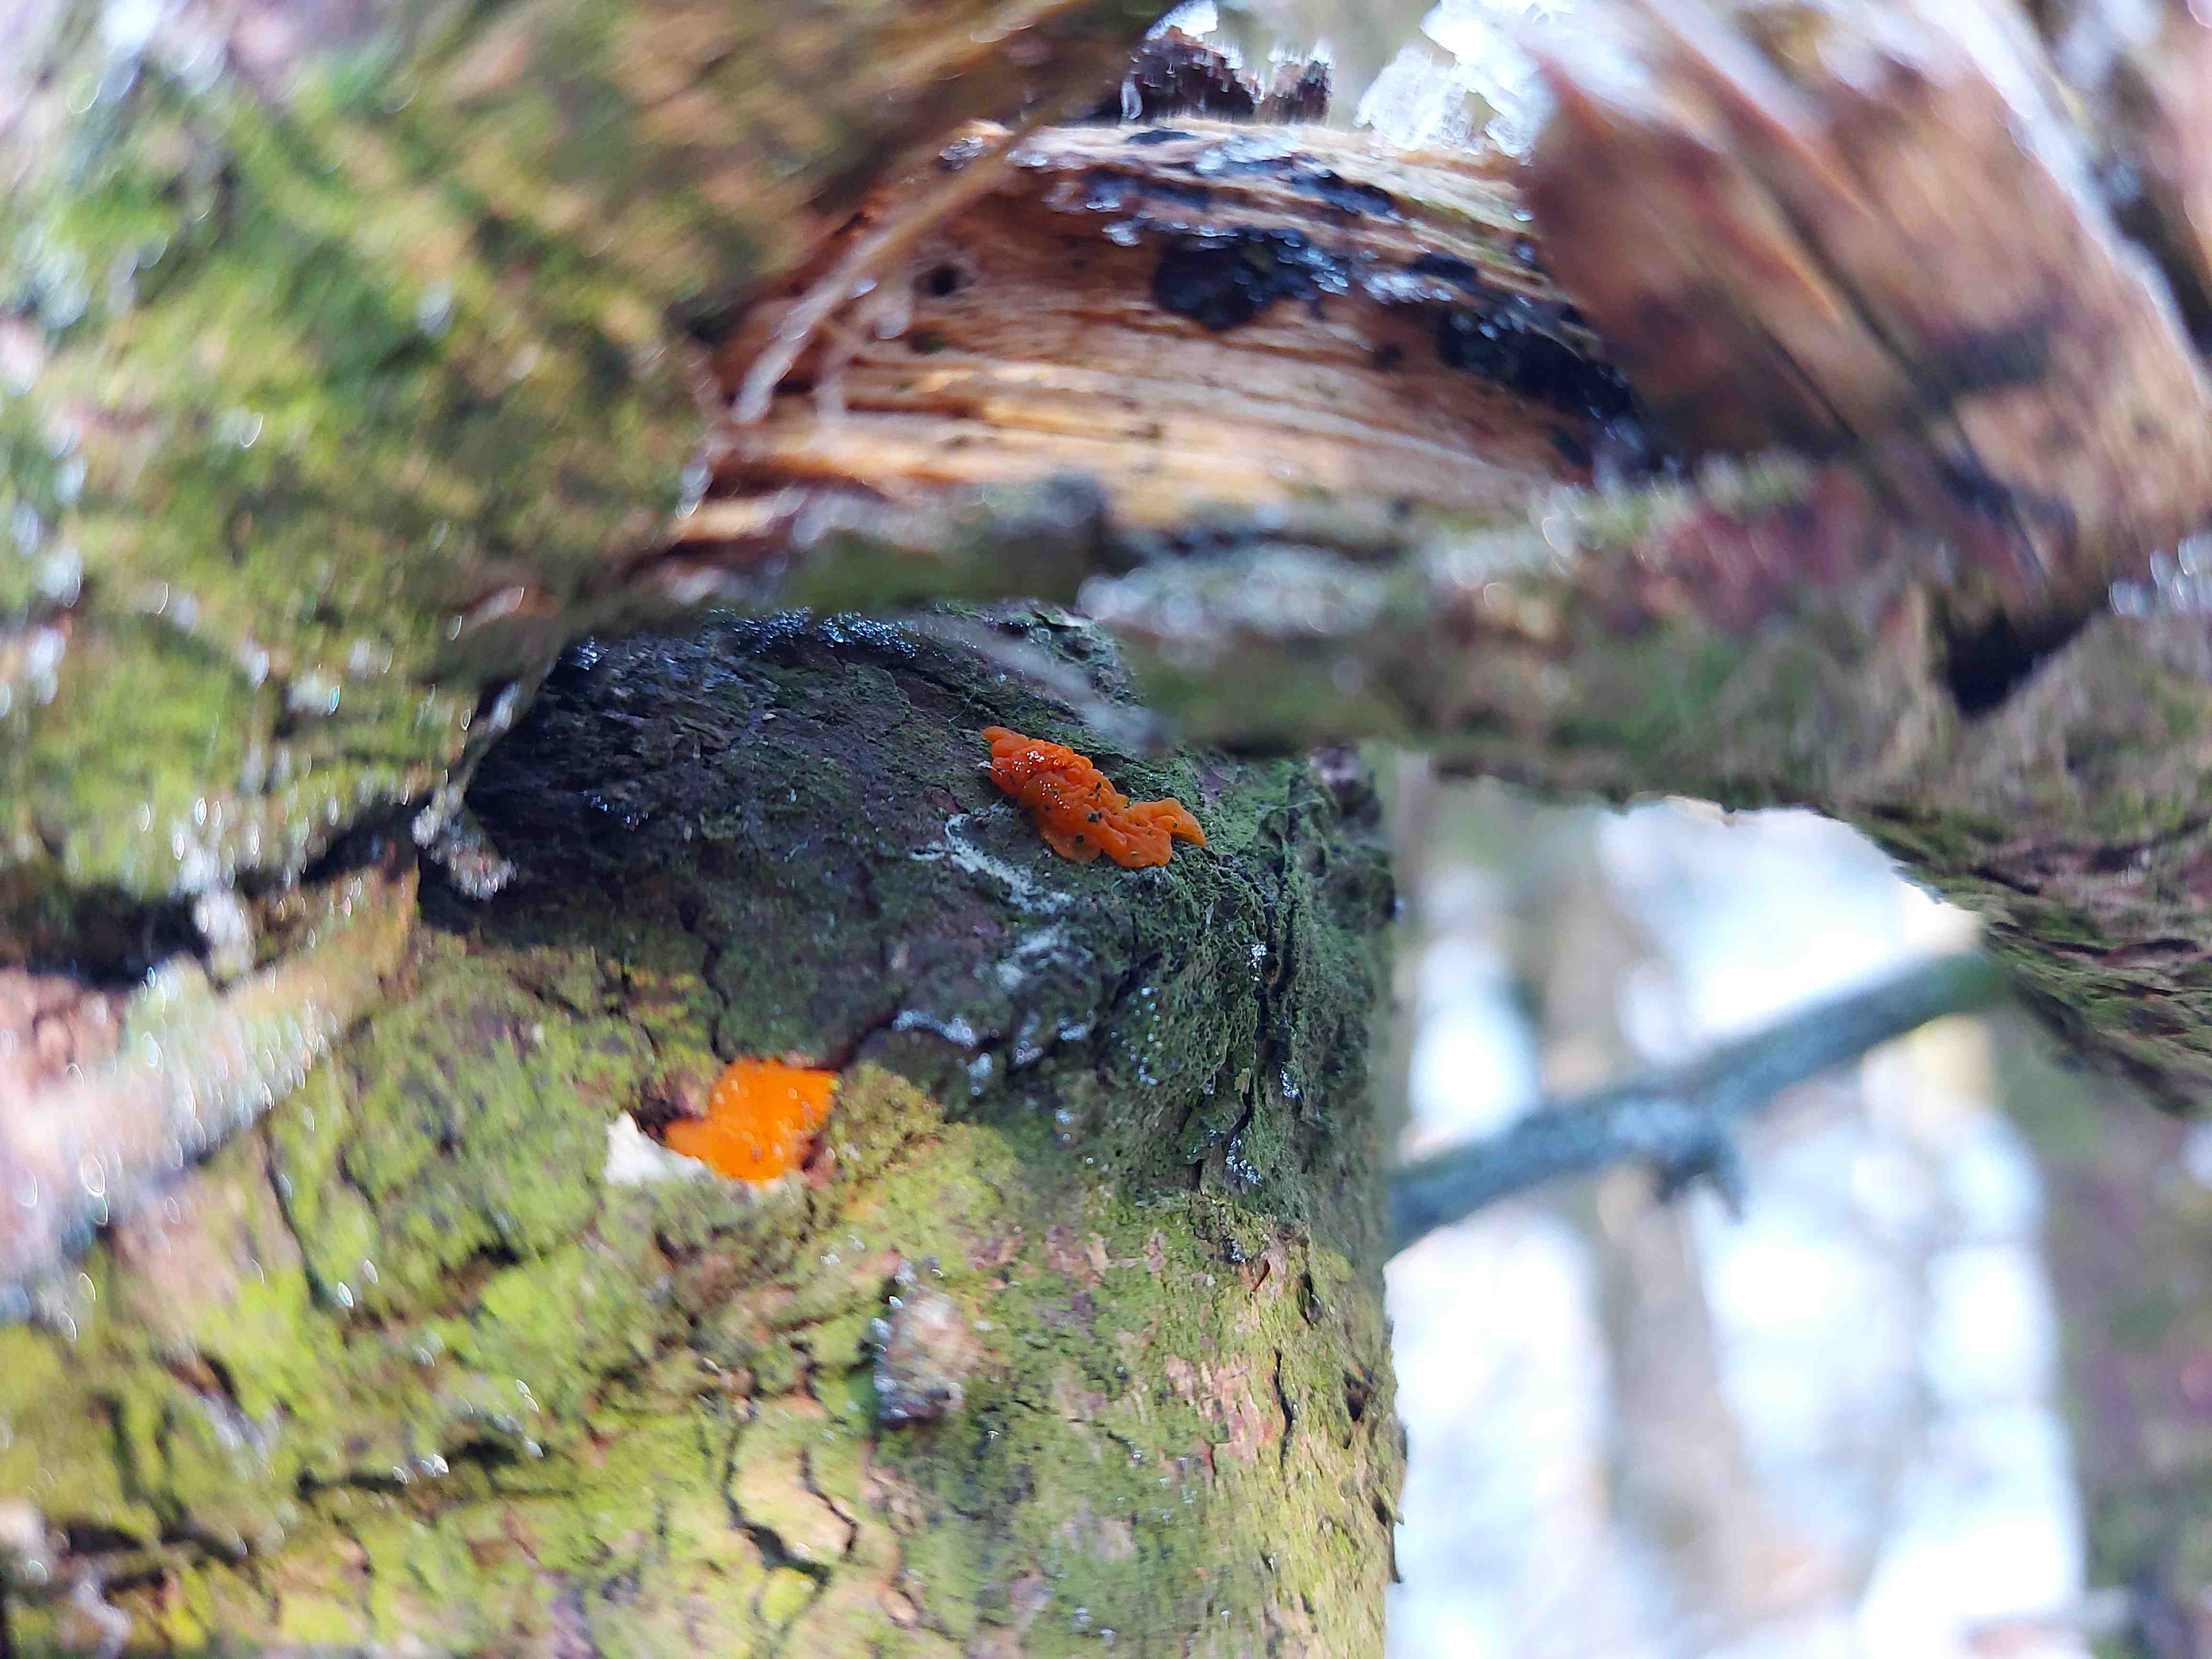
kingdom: Fungi
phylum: Basidiomycota
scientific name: Basidiomycota
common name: basidiesvampe
